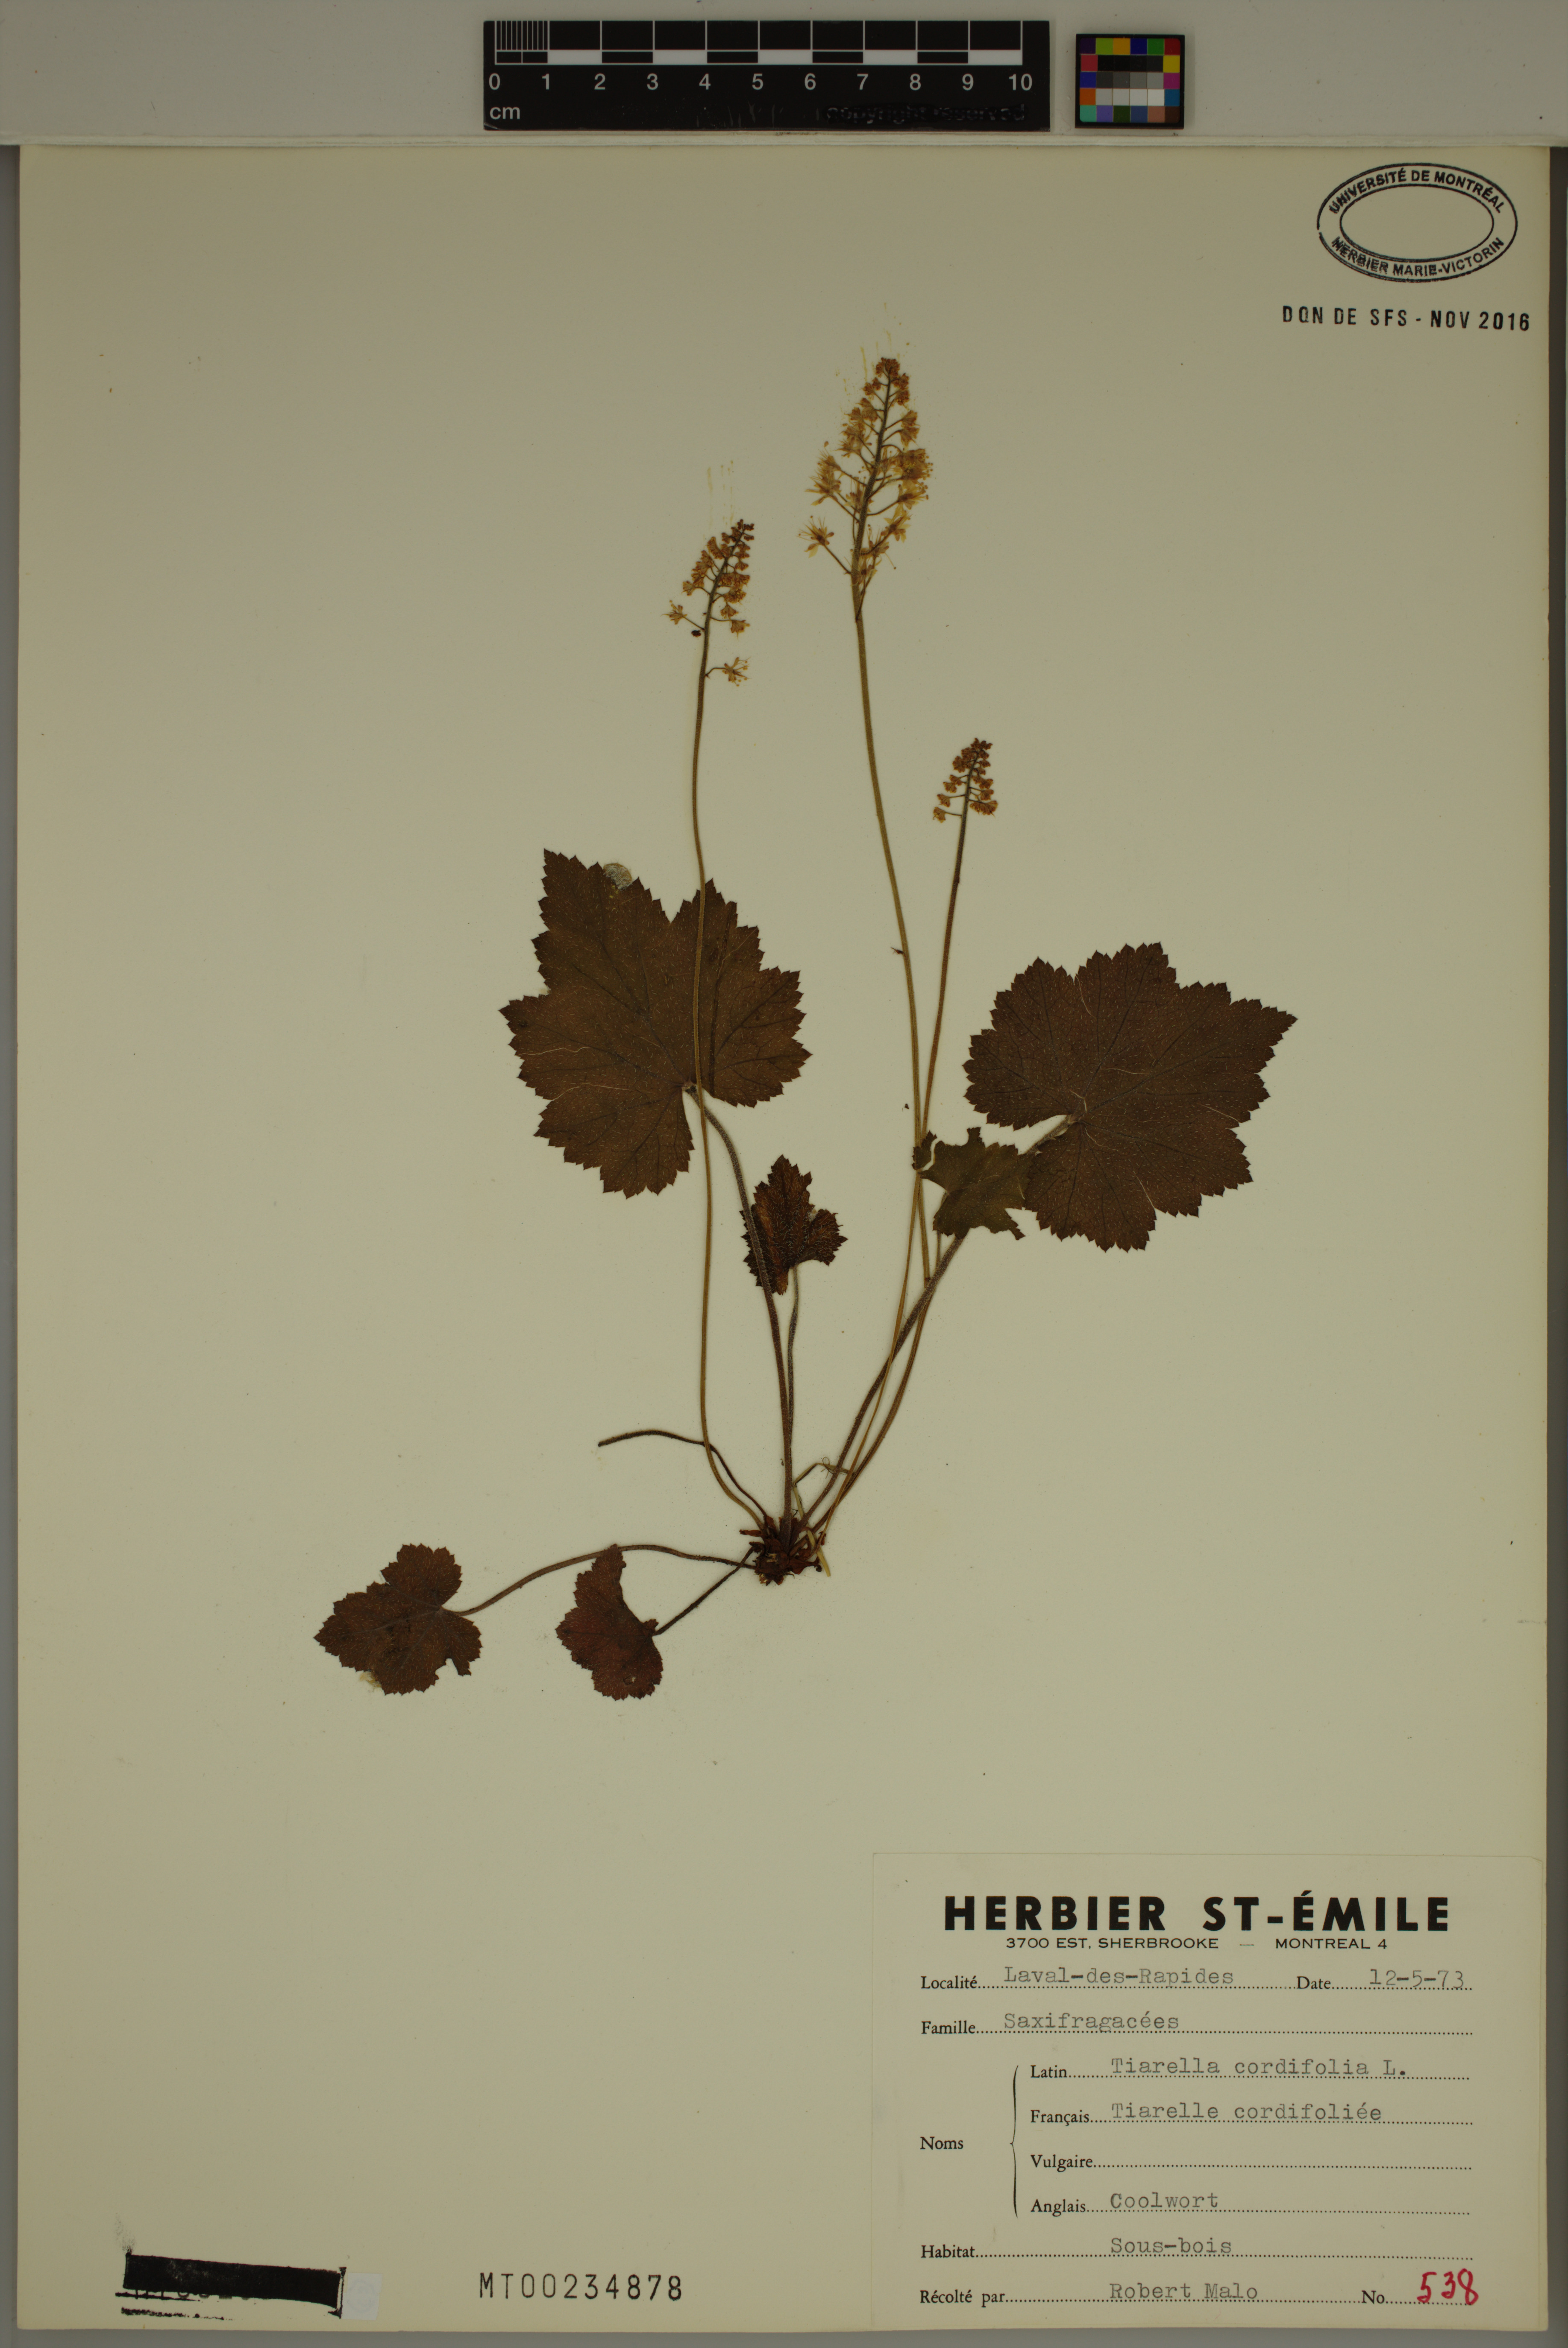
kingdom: Plantae
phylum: Tracheophyta
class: Magnoliopsida
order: Saxifragales
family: Saxifragaceae
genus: Tiarella
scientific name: Tiarella cordifolia
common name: Foamflower
